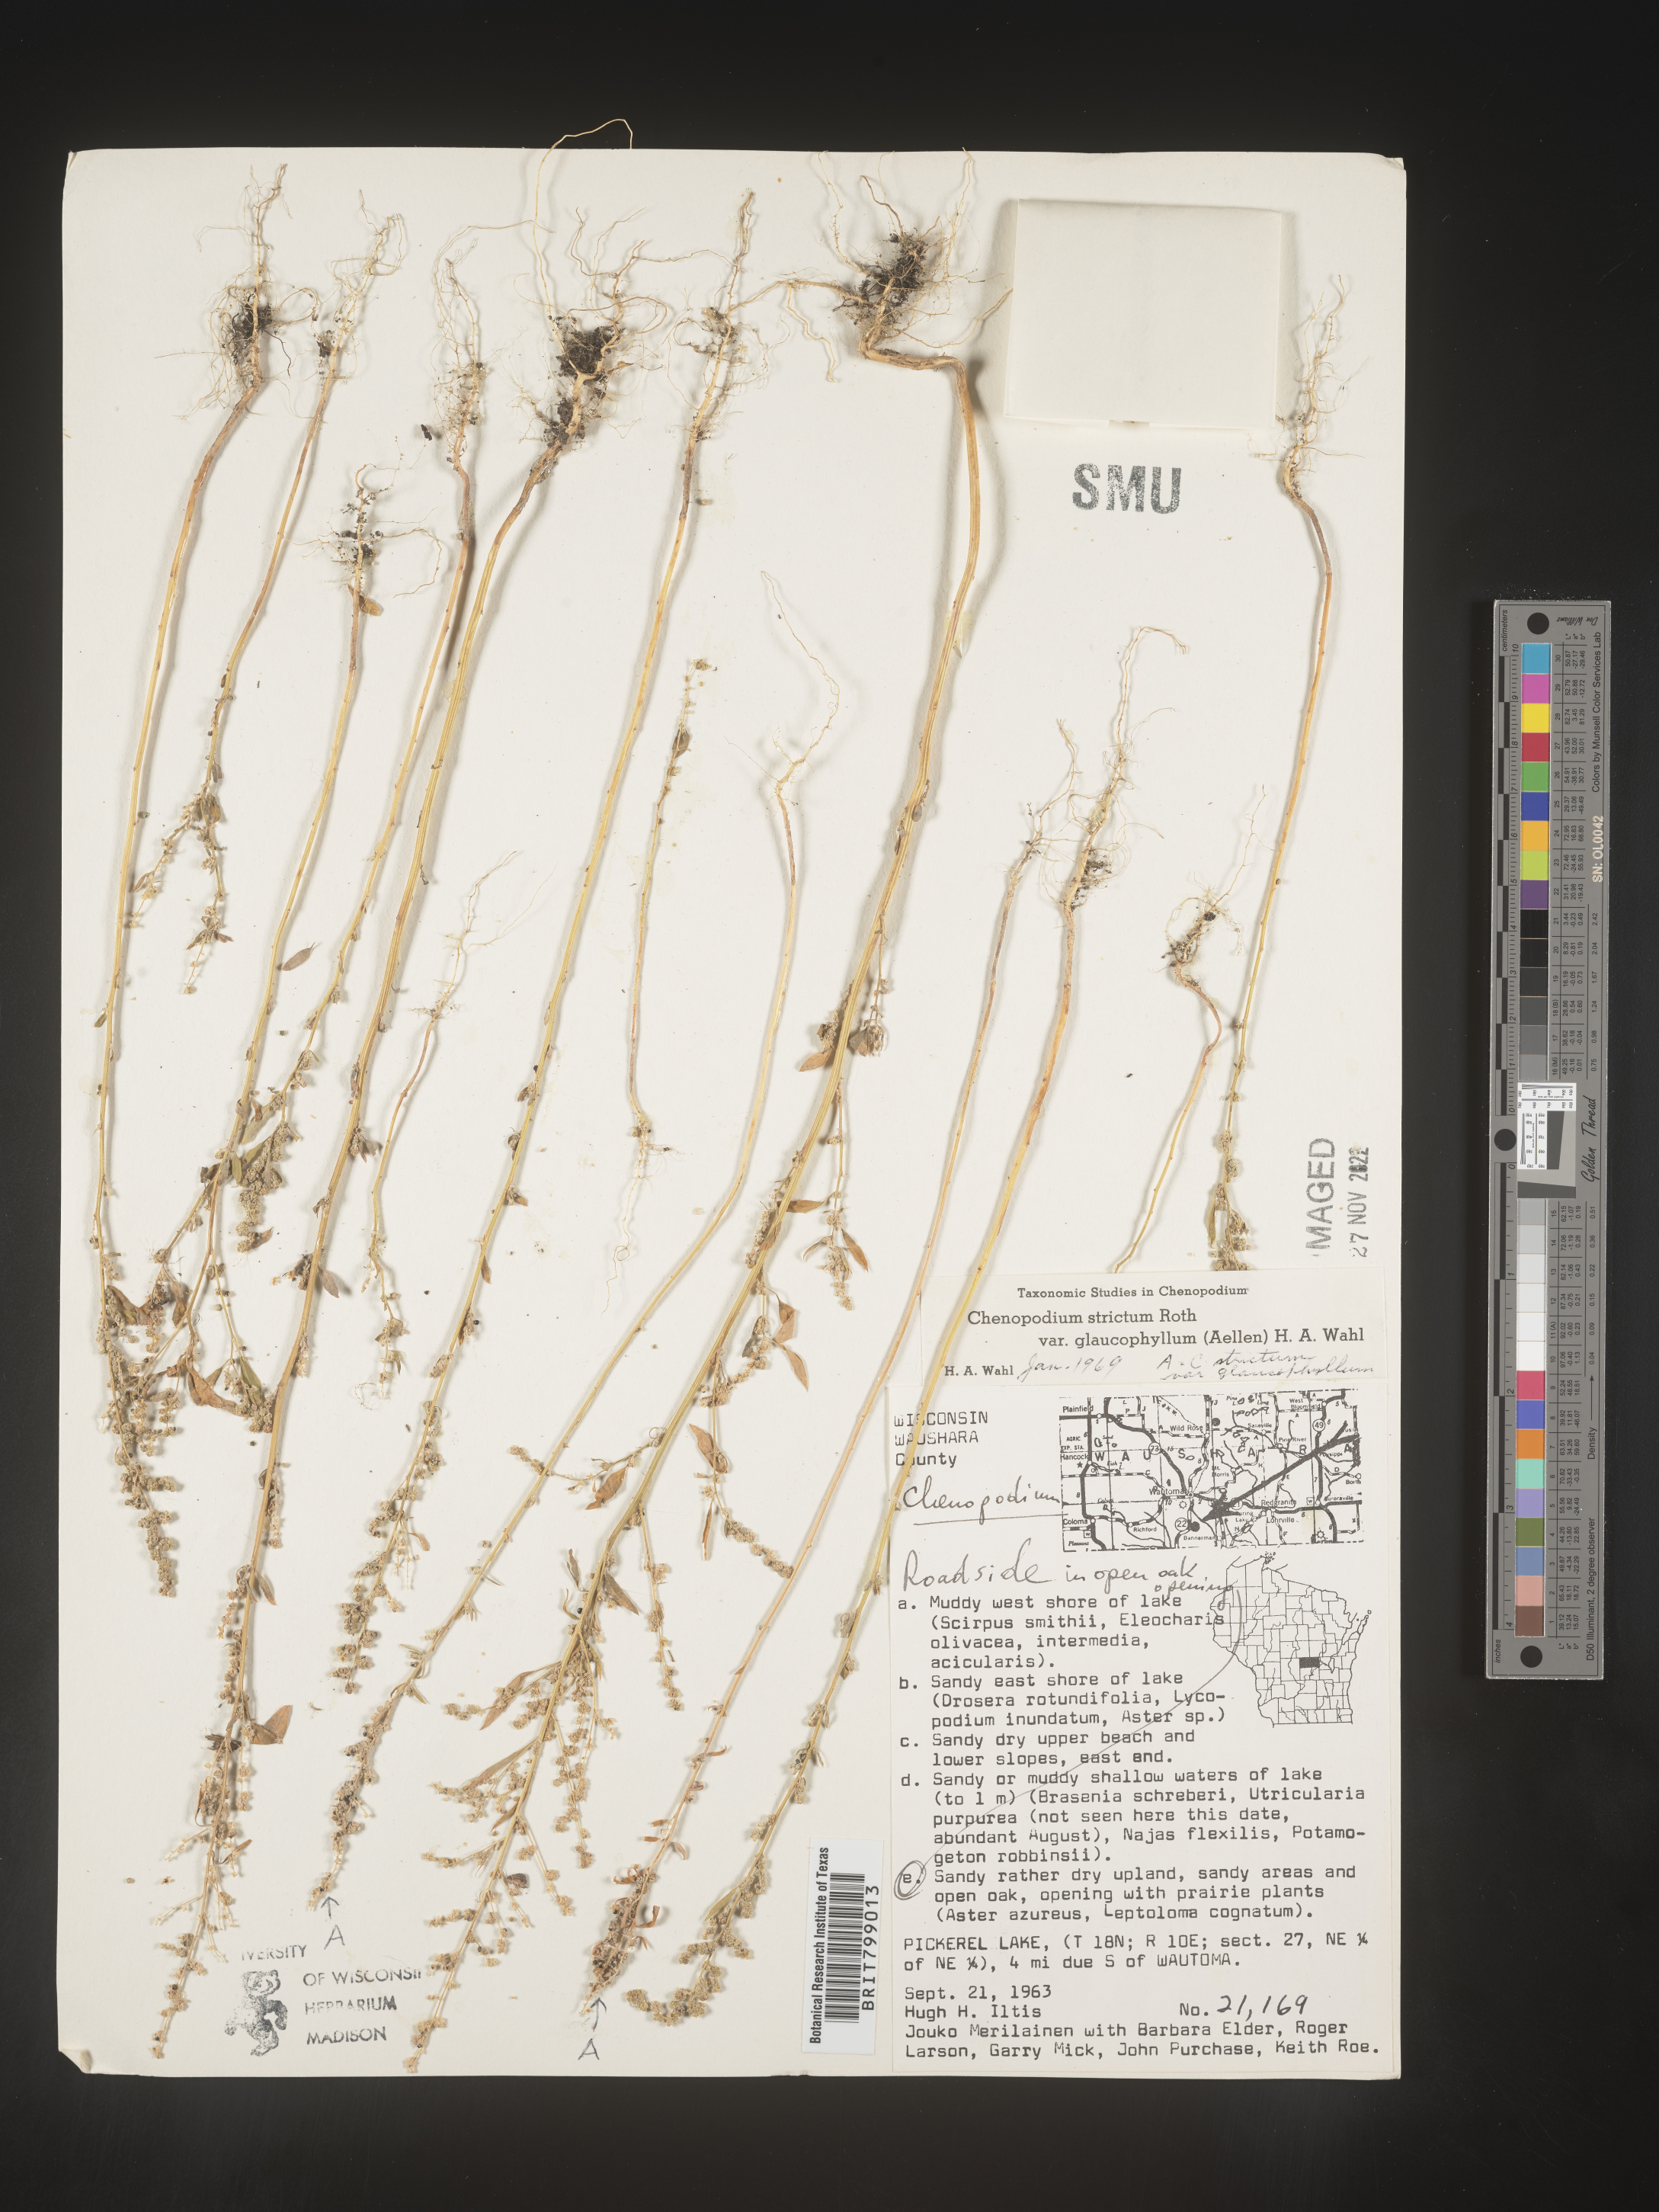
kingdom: Plantae
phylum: Tracheophyta
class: Magnoliopsida
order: Caryophyllales
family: Amaranthaceae
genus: Chenopodium
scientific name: Chenopodium album
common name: Fat-hen
